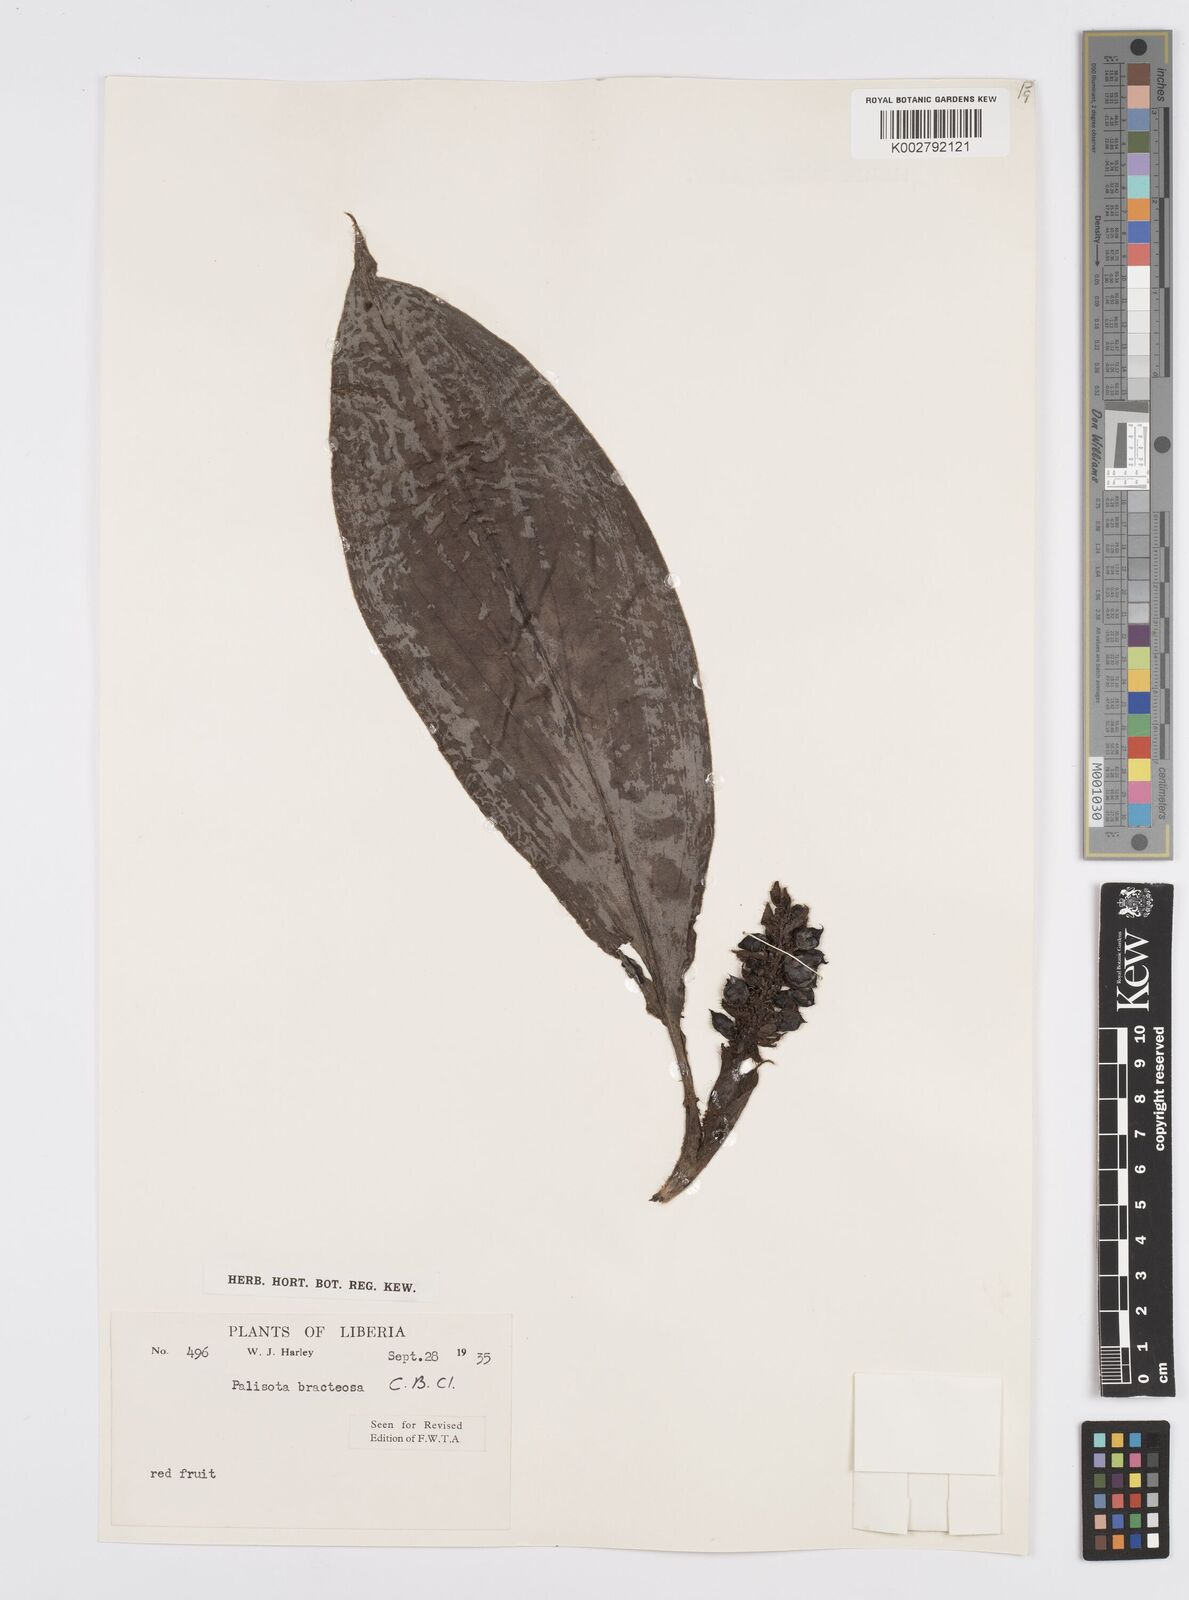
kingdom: Plantae
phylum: Tracheophyta
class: Liliopsida
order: Commelinales
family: Commelinaceae
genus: Palisota
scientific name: Palisota bracteosa
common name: Palisota
